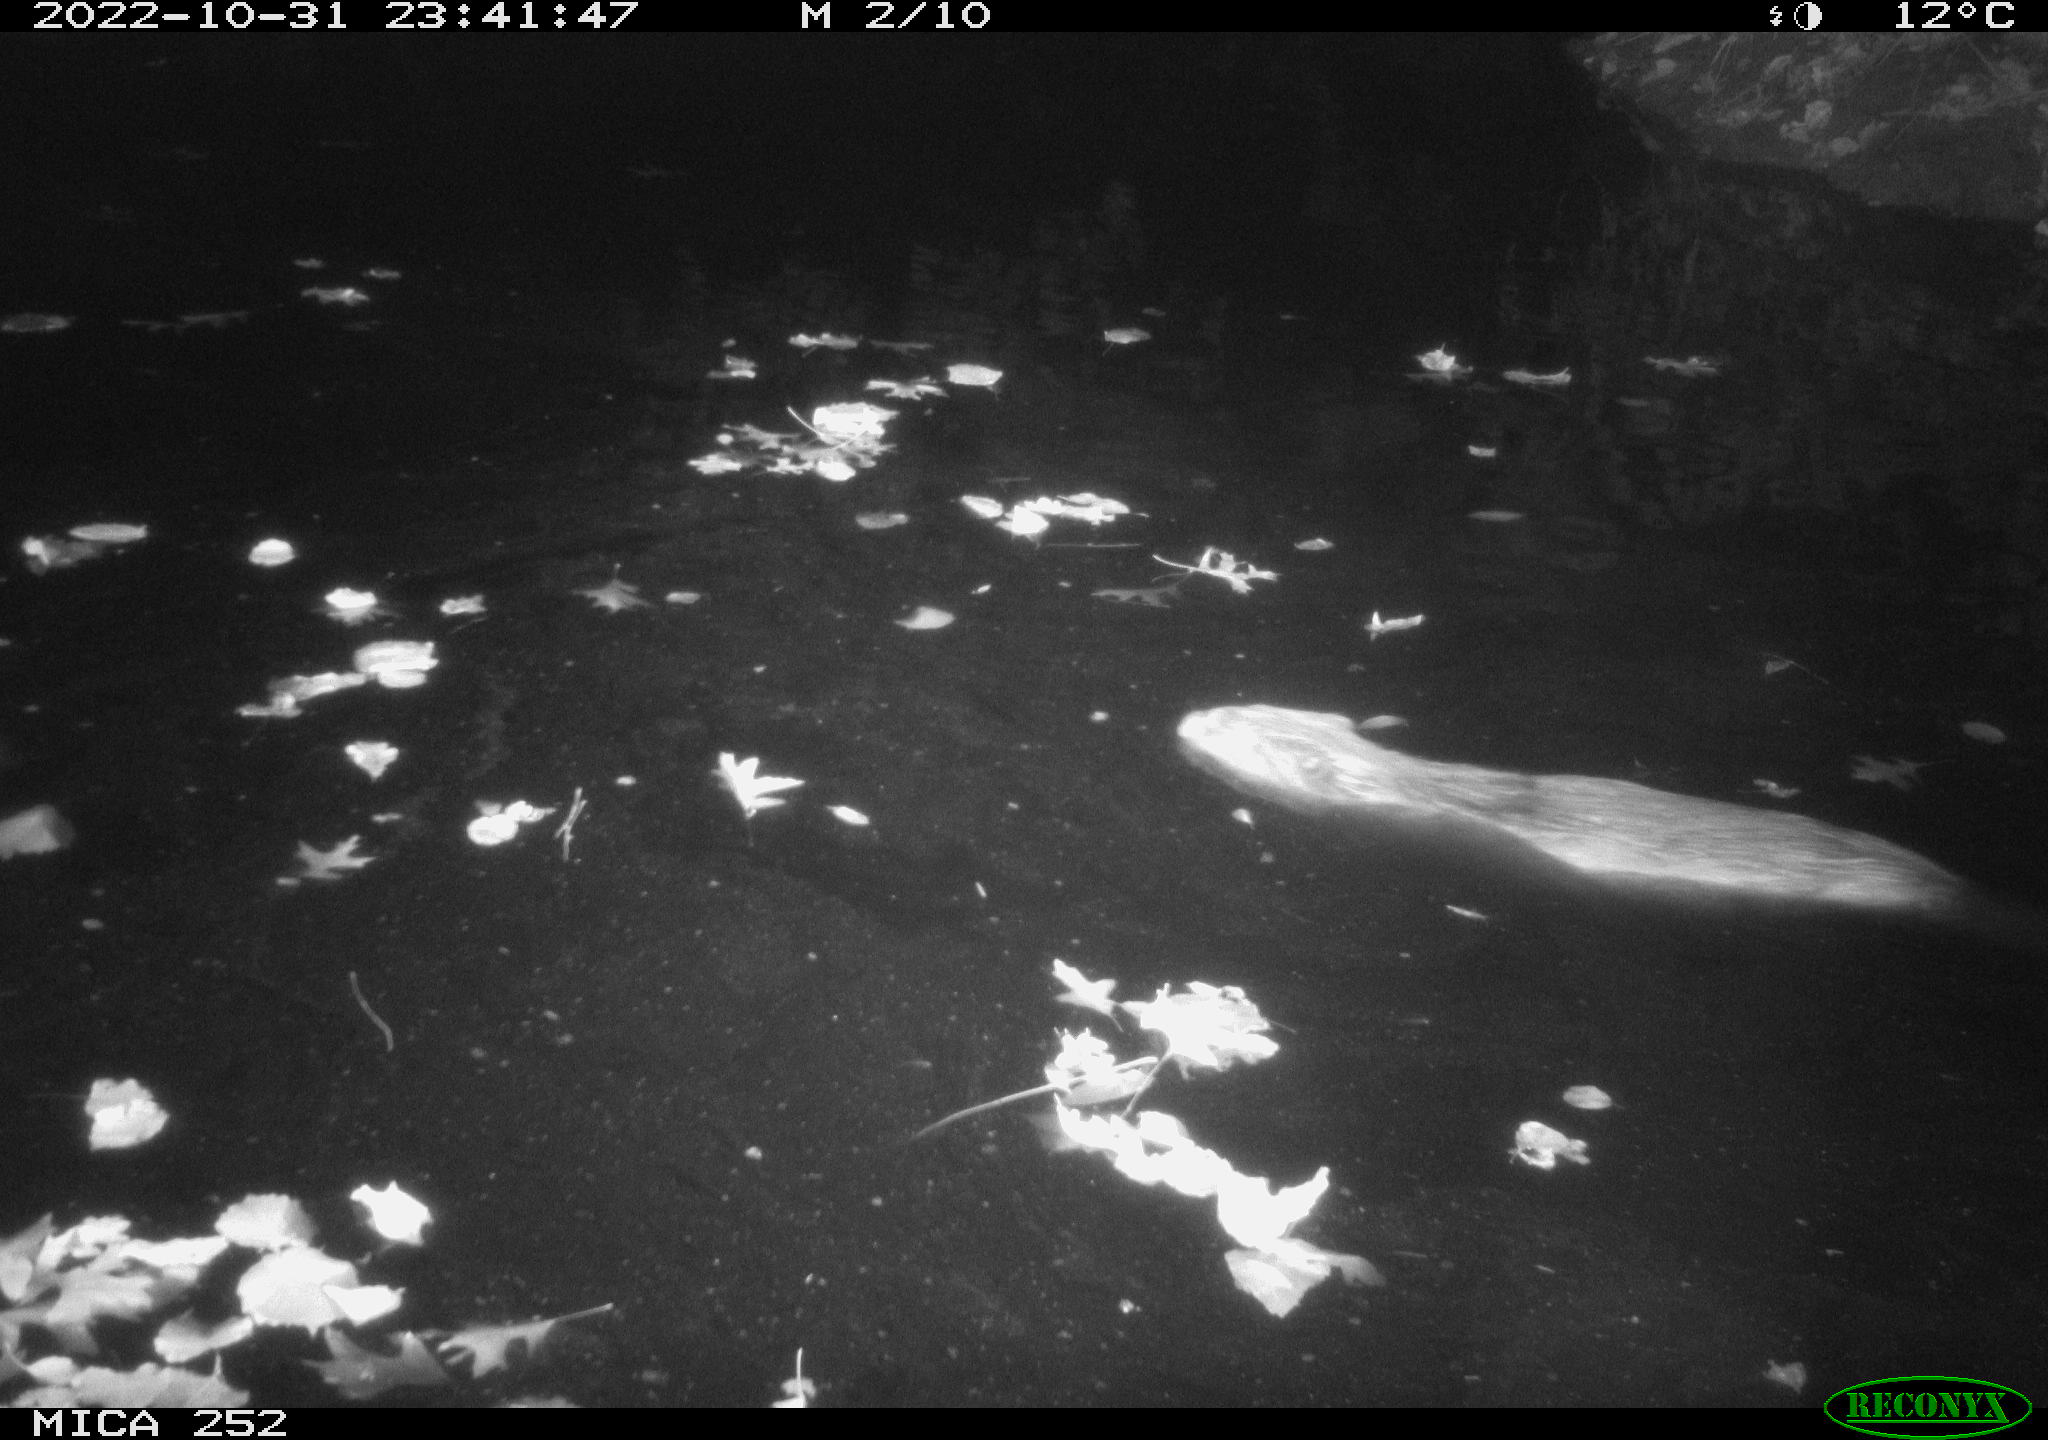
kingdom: Animalia
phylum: Chordata
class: Mammalia
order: Rodentia
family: Castoridae
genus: Castor
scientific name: Castor fiber
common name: Eurasian beaver
